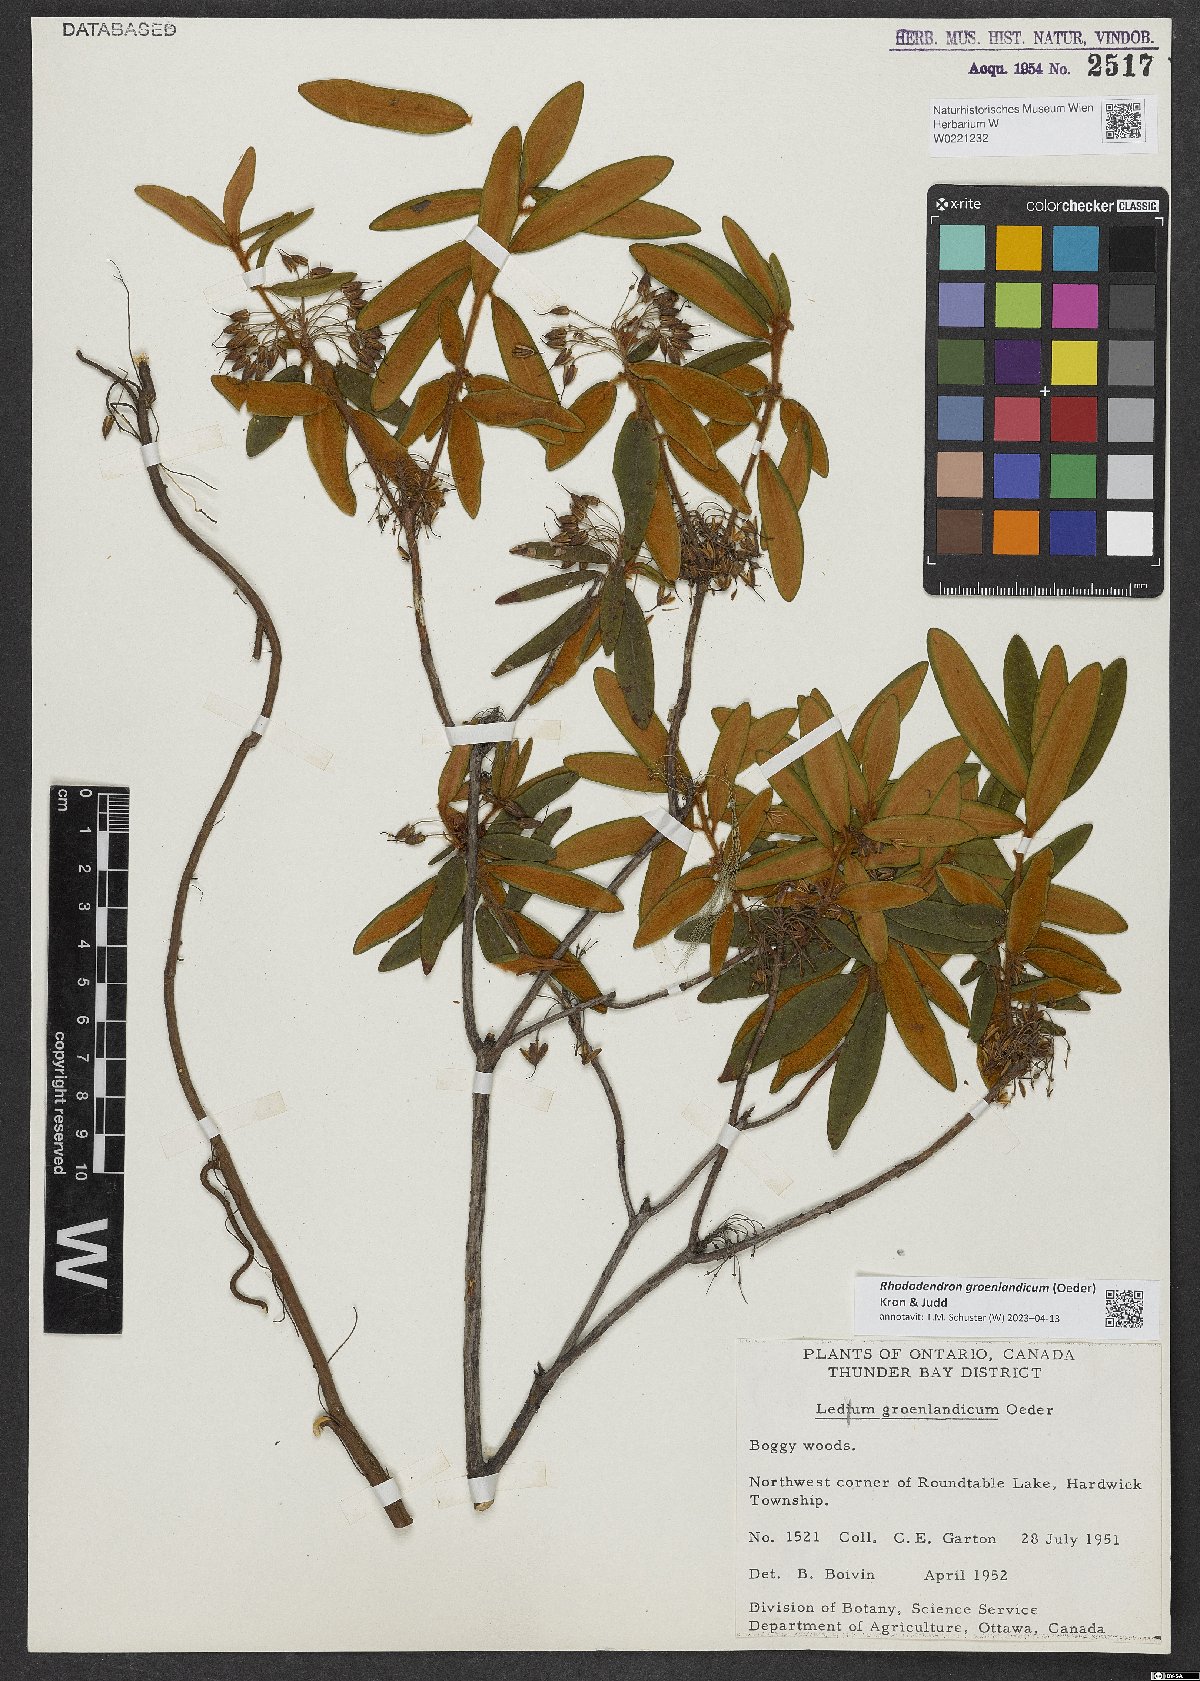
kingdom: Plantae
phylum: Tracheophyta
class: Magnoliopsida
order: Ericales
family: Ericaceae
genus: Rhododendron
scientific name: Rhododendron groenlandicum
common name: Bog labrador tea
